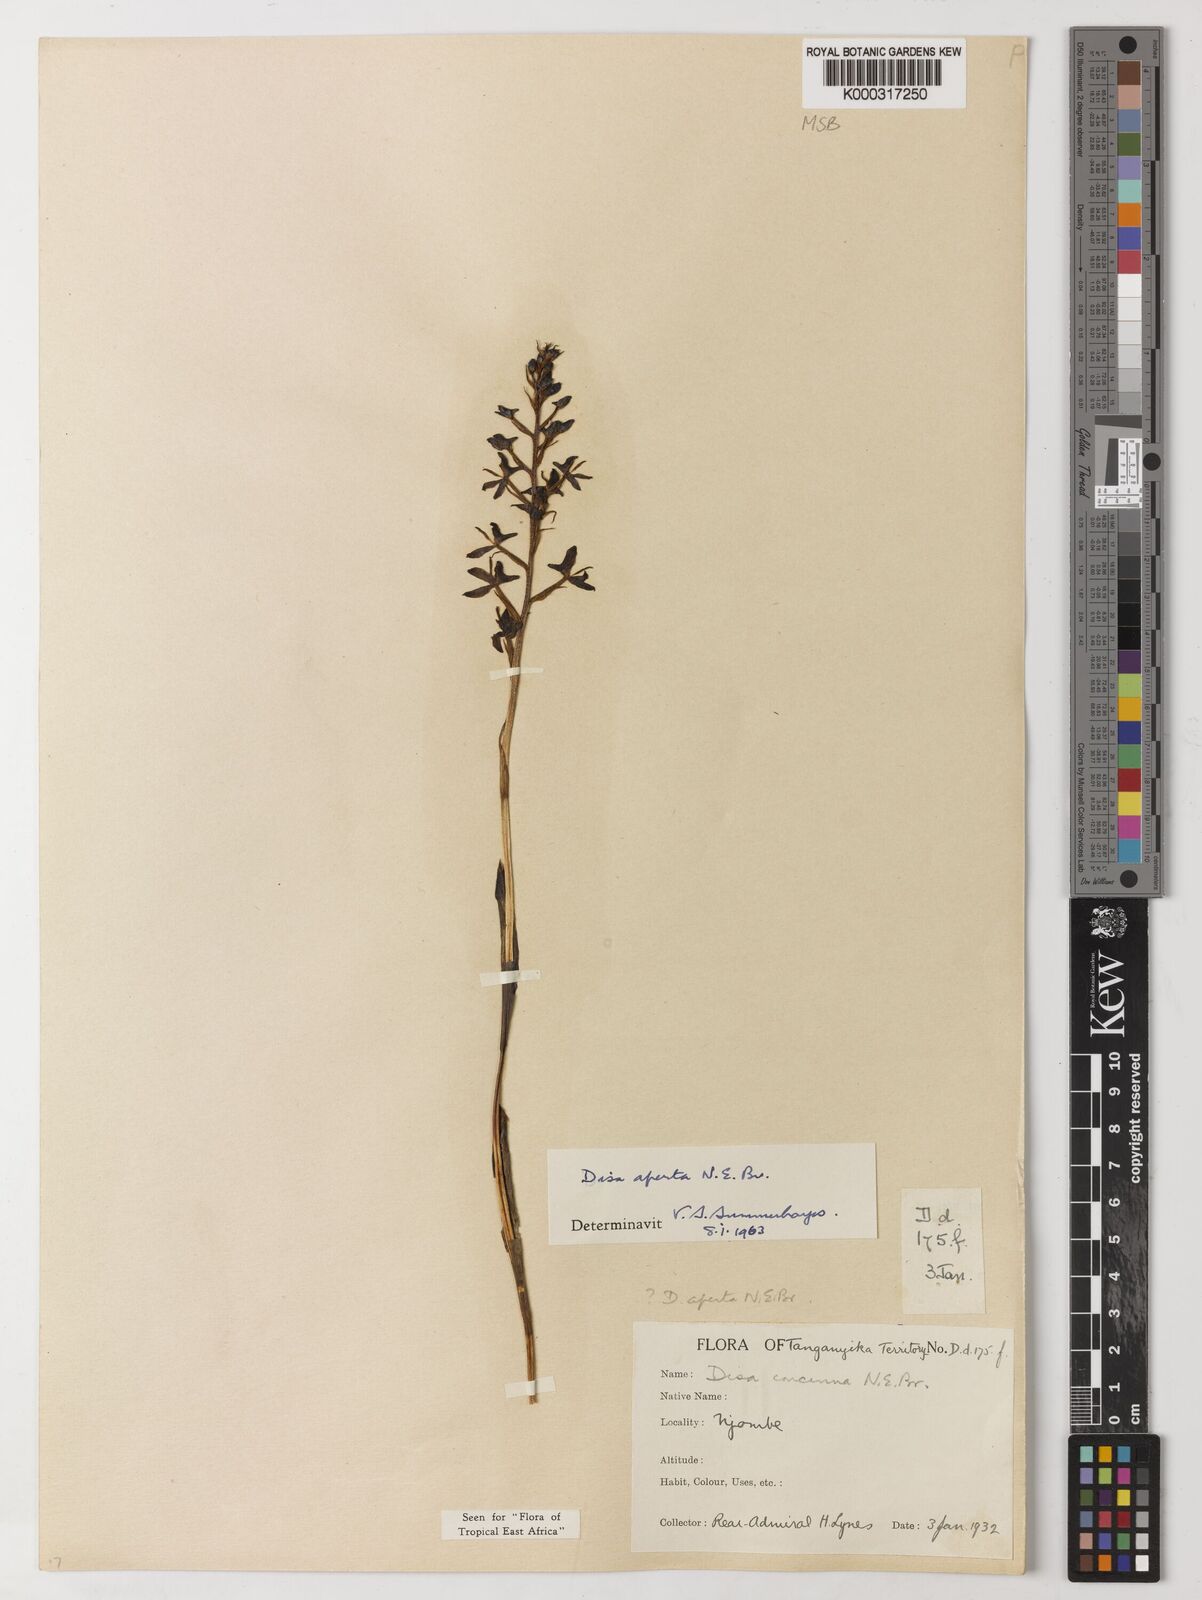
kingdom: Plantae
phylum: Tracheophyta
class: Liliopsida
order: Asparagales
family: Orchidaceae
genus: Disa
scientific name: Disa aperta
